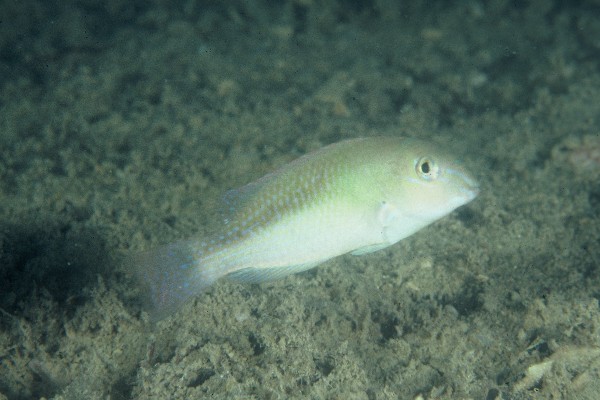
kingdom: Animalia
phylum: Chordata
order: Perciformes
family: Labridae
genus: Choerodon
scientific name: Choerodon vitta
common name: Redstripe tuskfish
